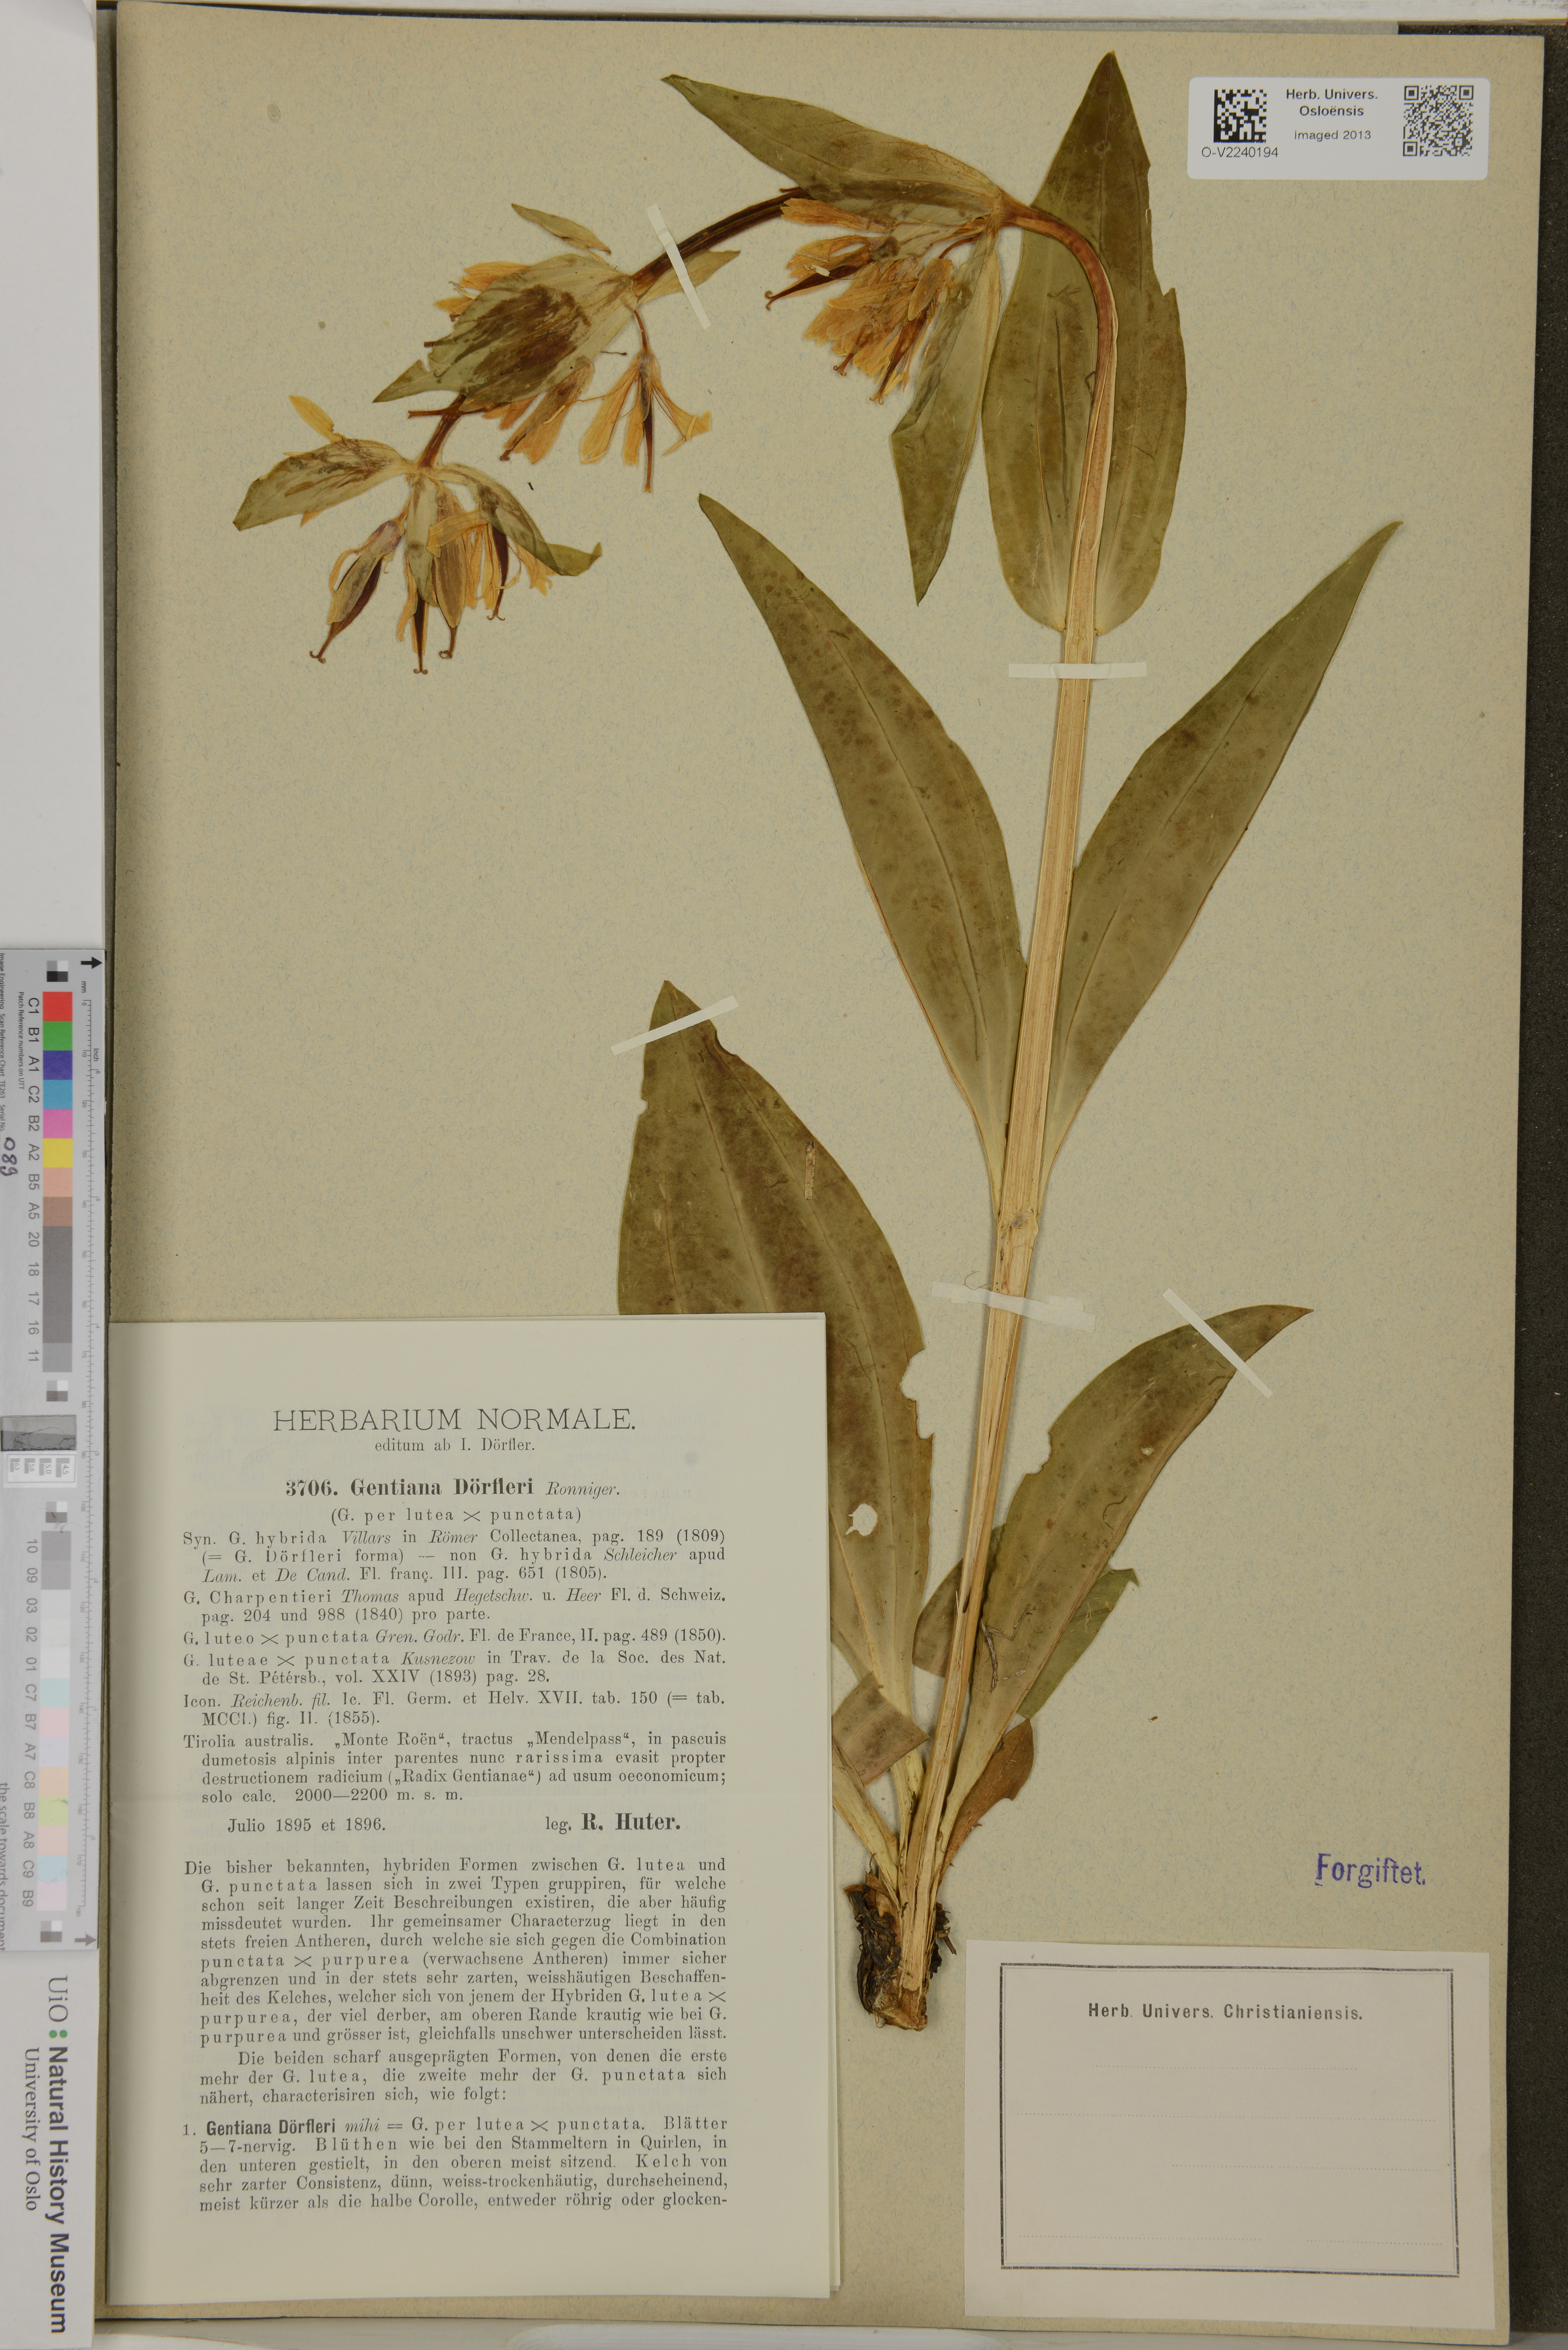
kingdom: Plantae
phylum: Tracheophyta
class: Magnoliopsida
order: Gentianales
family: Gentianaceae
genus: Gentiana
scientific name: Gentiana
